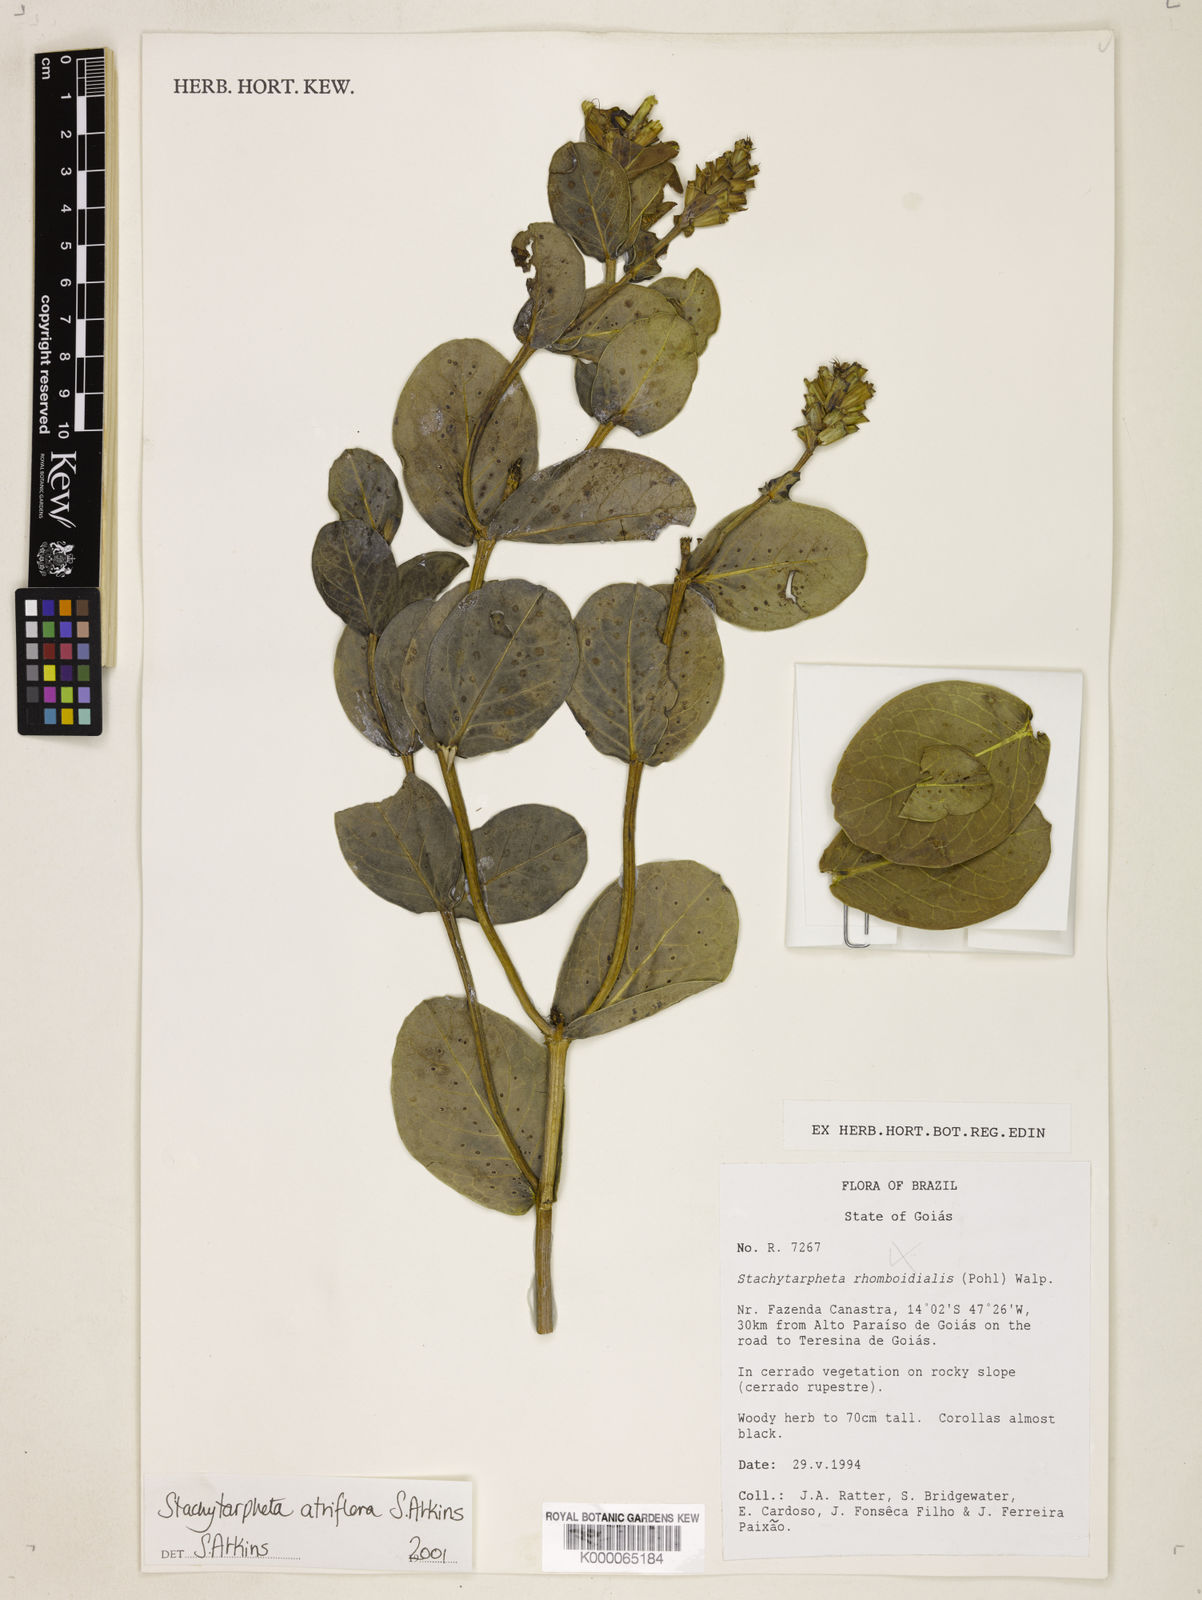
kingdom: Plantae
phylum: Tracheophyta
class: Magnoliopsida
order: Lamiales
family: Verbenaceae
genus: Stachytarpheta
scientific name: Stachytarpheta glauca
